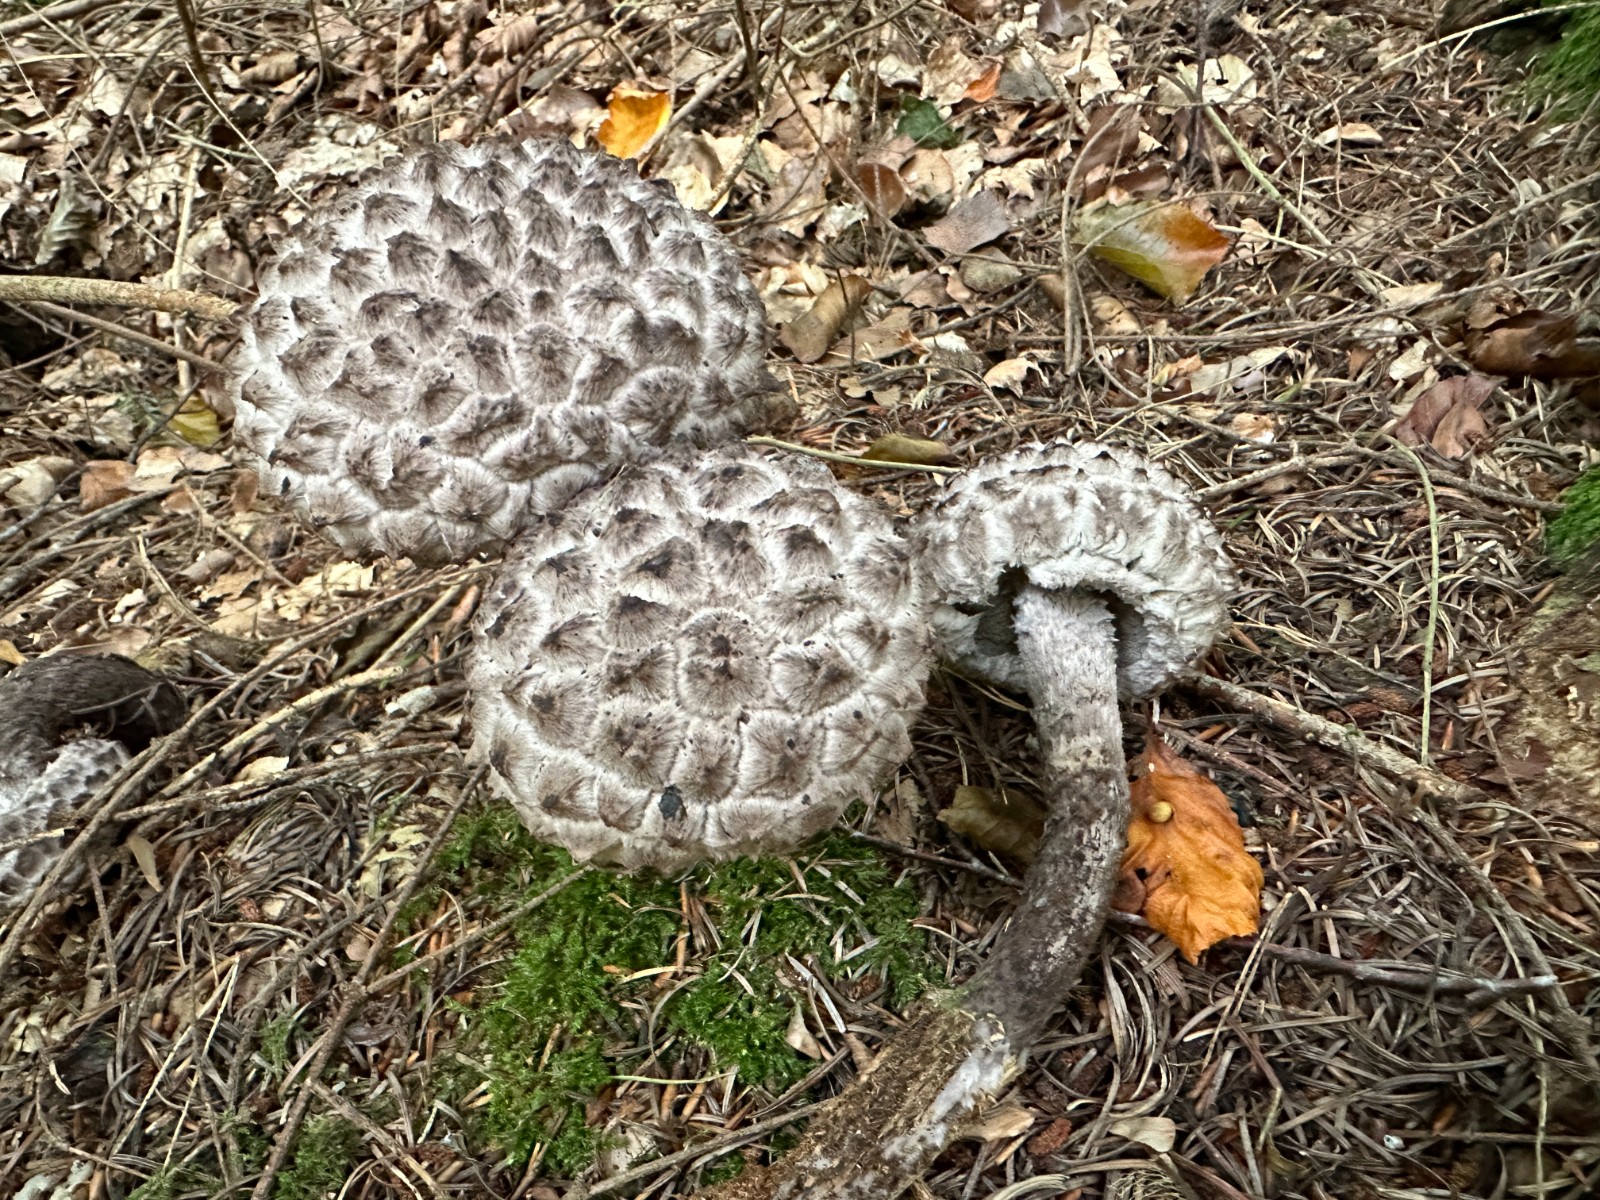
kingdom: Fungi
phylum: Basidiomycota
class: Agaricomycetes
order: Boletales
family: Boletaceae
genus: Strobilomyces
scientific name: Strobilomyces strobilaceus
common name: koglerørhat
